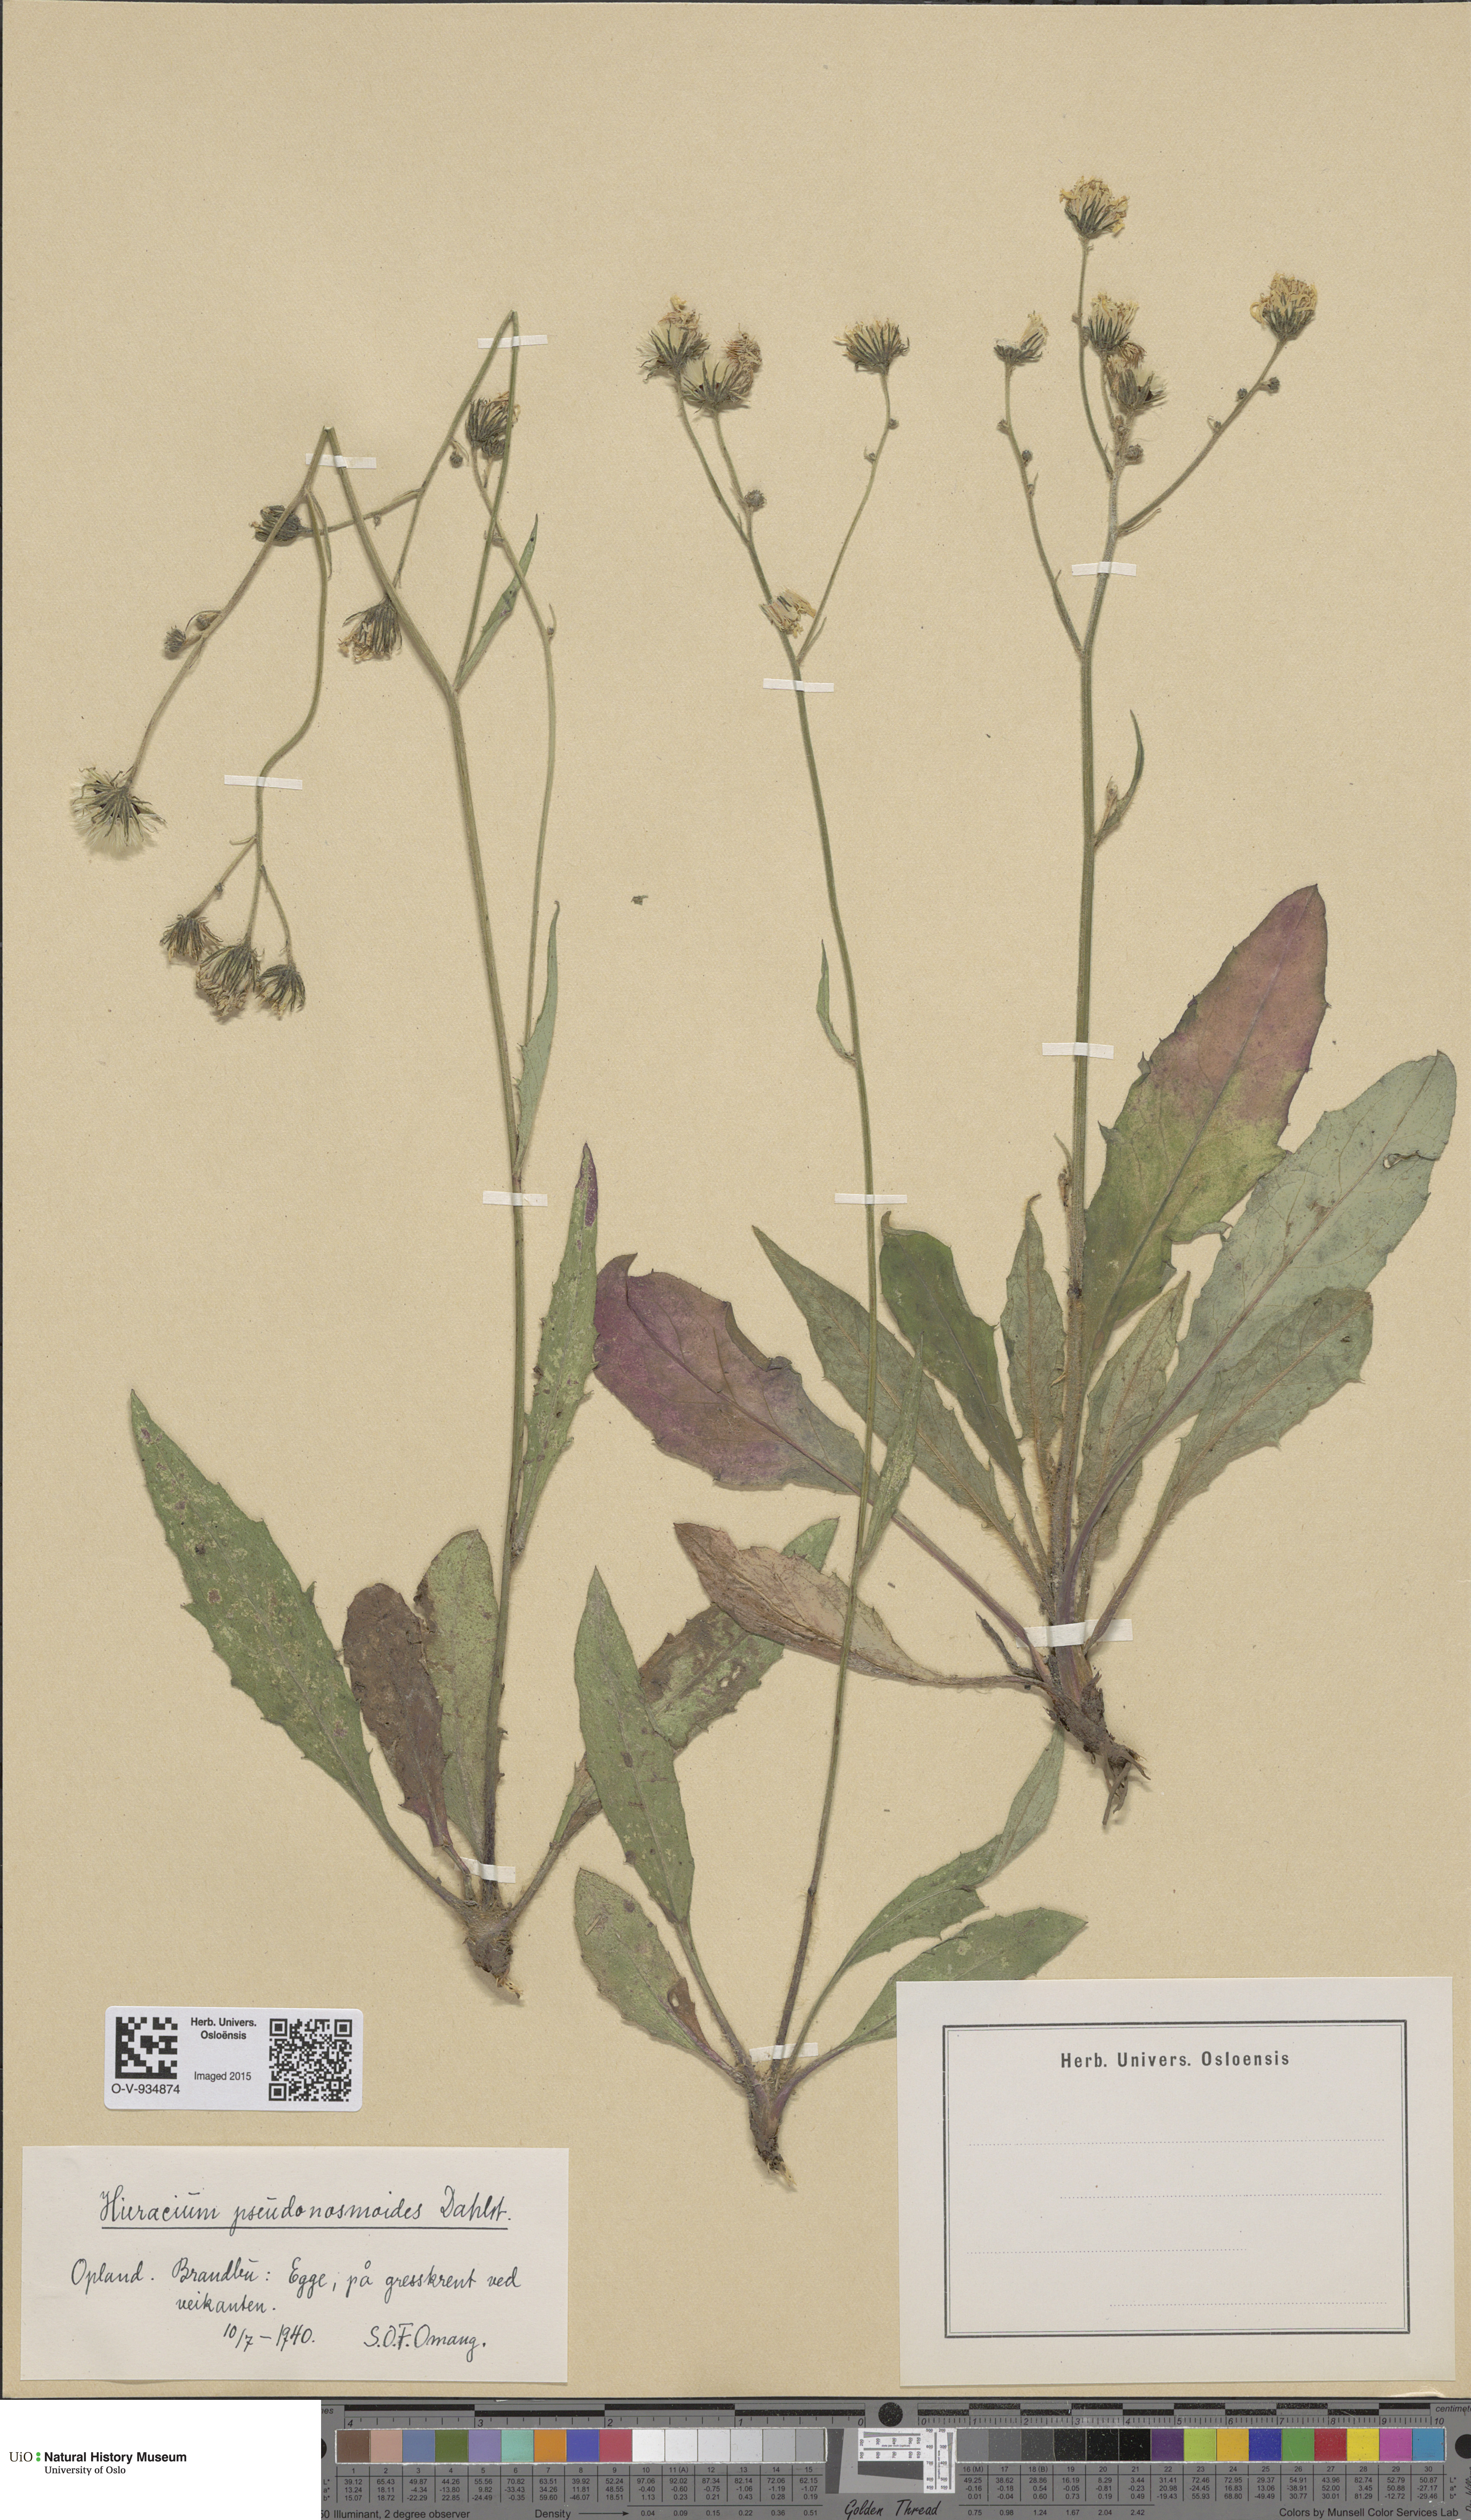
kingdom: Plantae
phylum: Tracheophyta
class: Magnoliopsida
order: Asterales
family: Asteraceae
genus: Hieracium
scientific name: Hieracium saxifragum
